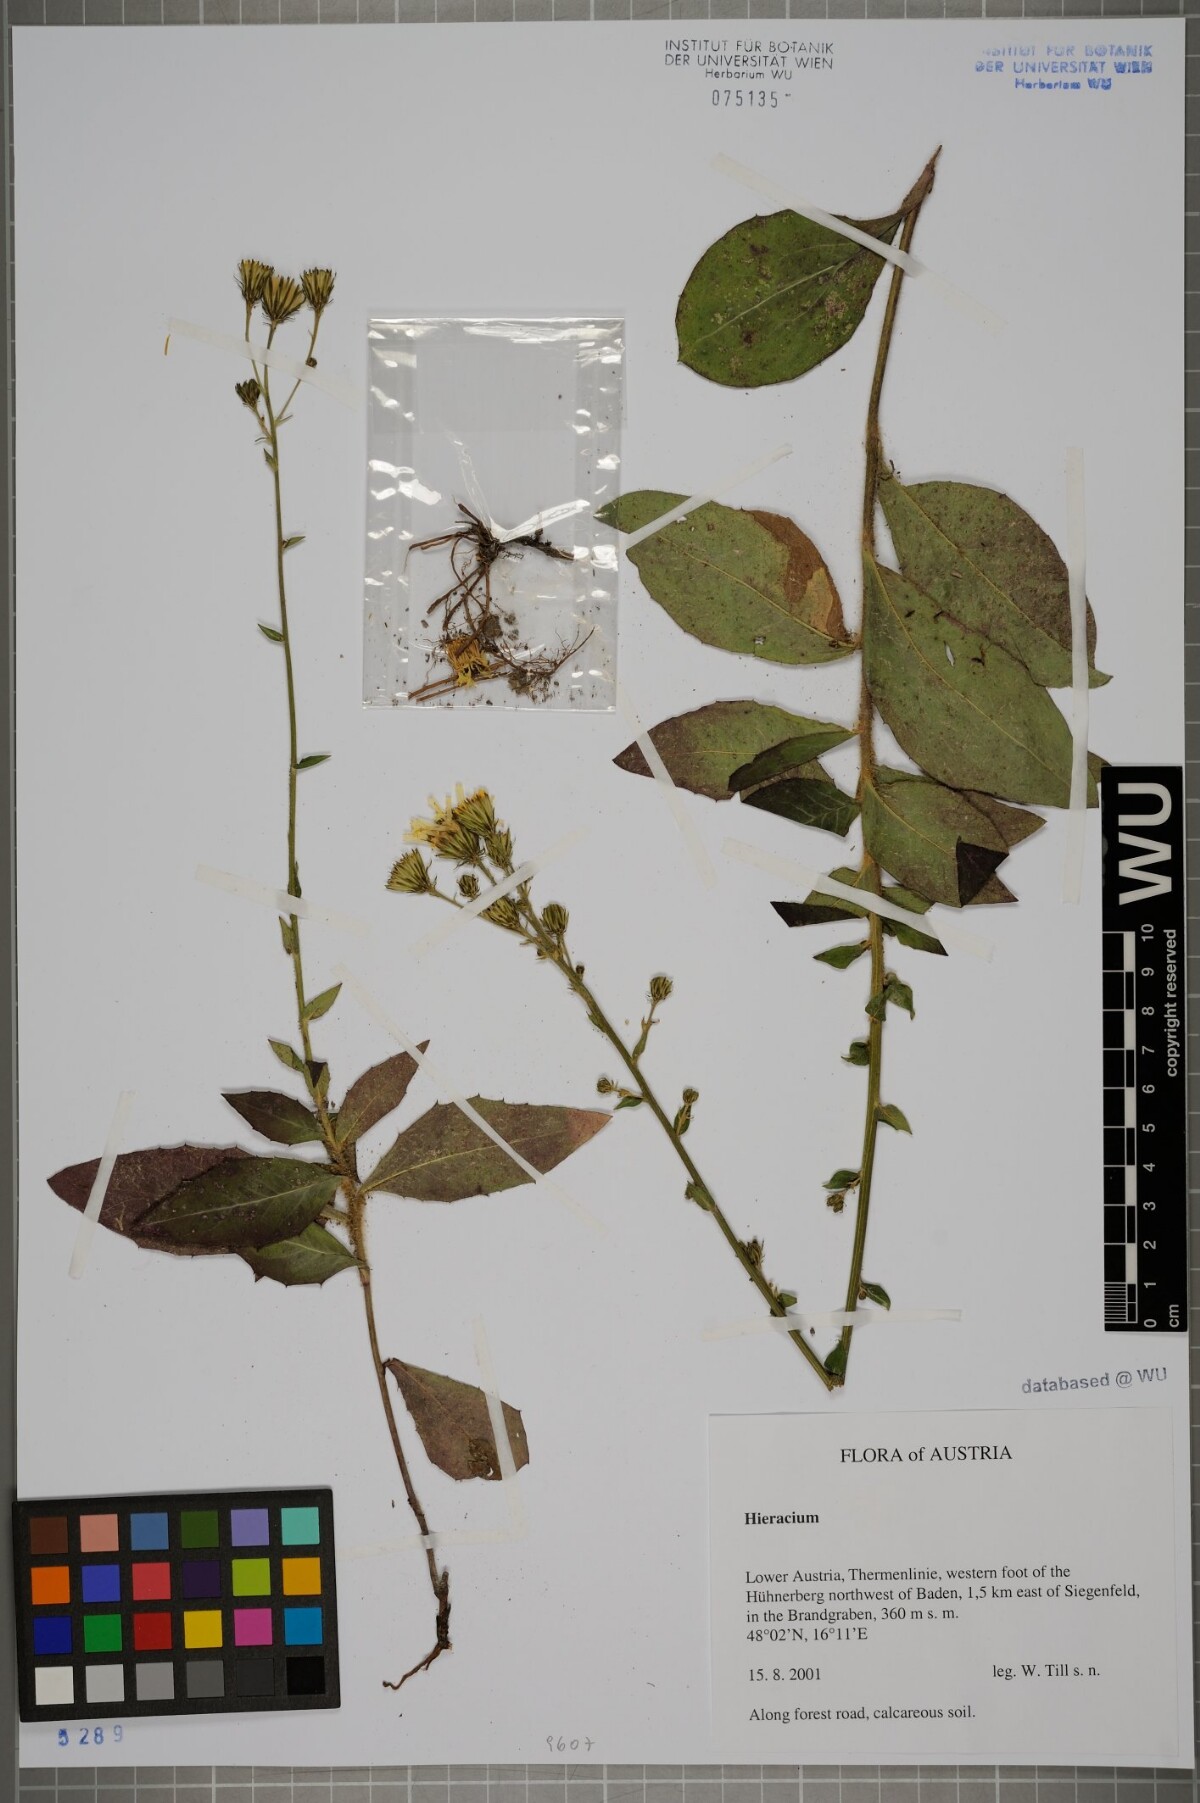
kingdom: Plantae
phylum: Tracheophyta
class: Magnoliopsida
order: Asterales
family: Asteraceae
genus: Hieracium
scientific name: Hieracium
